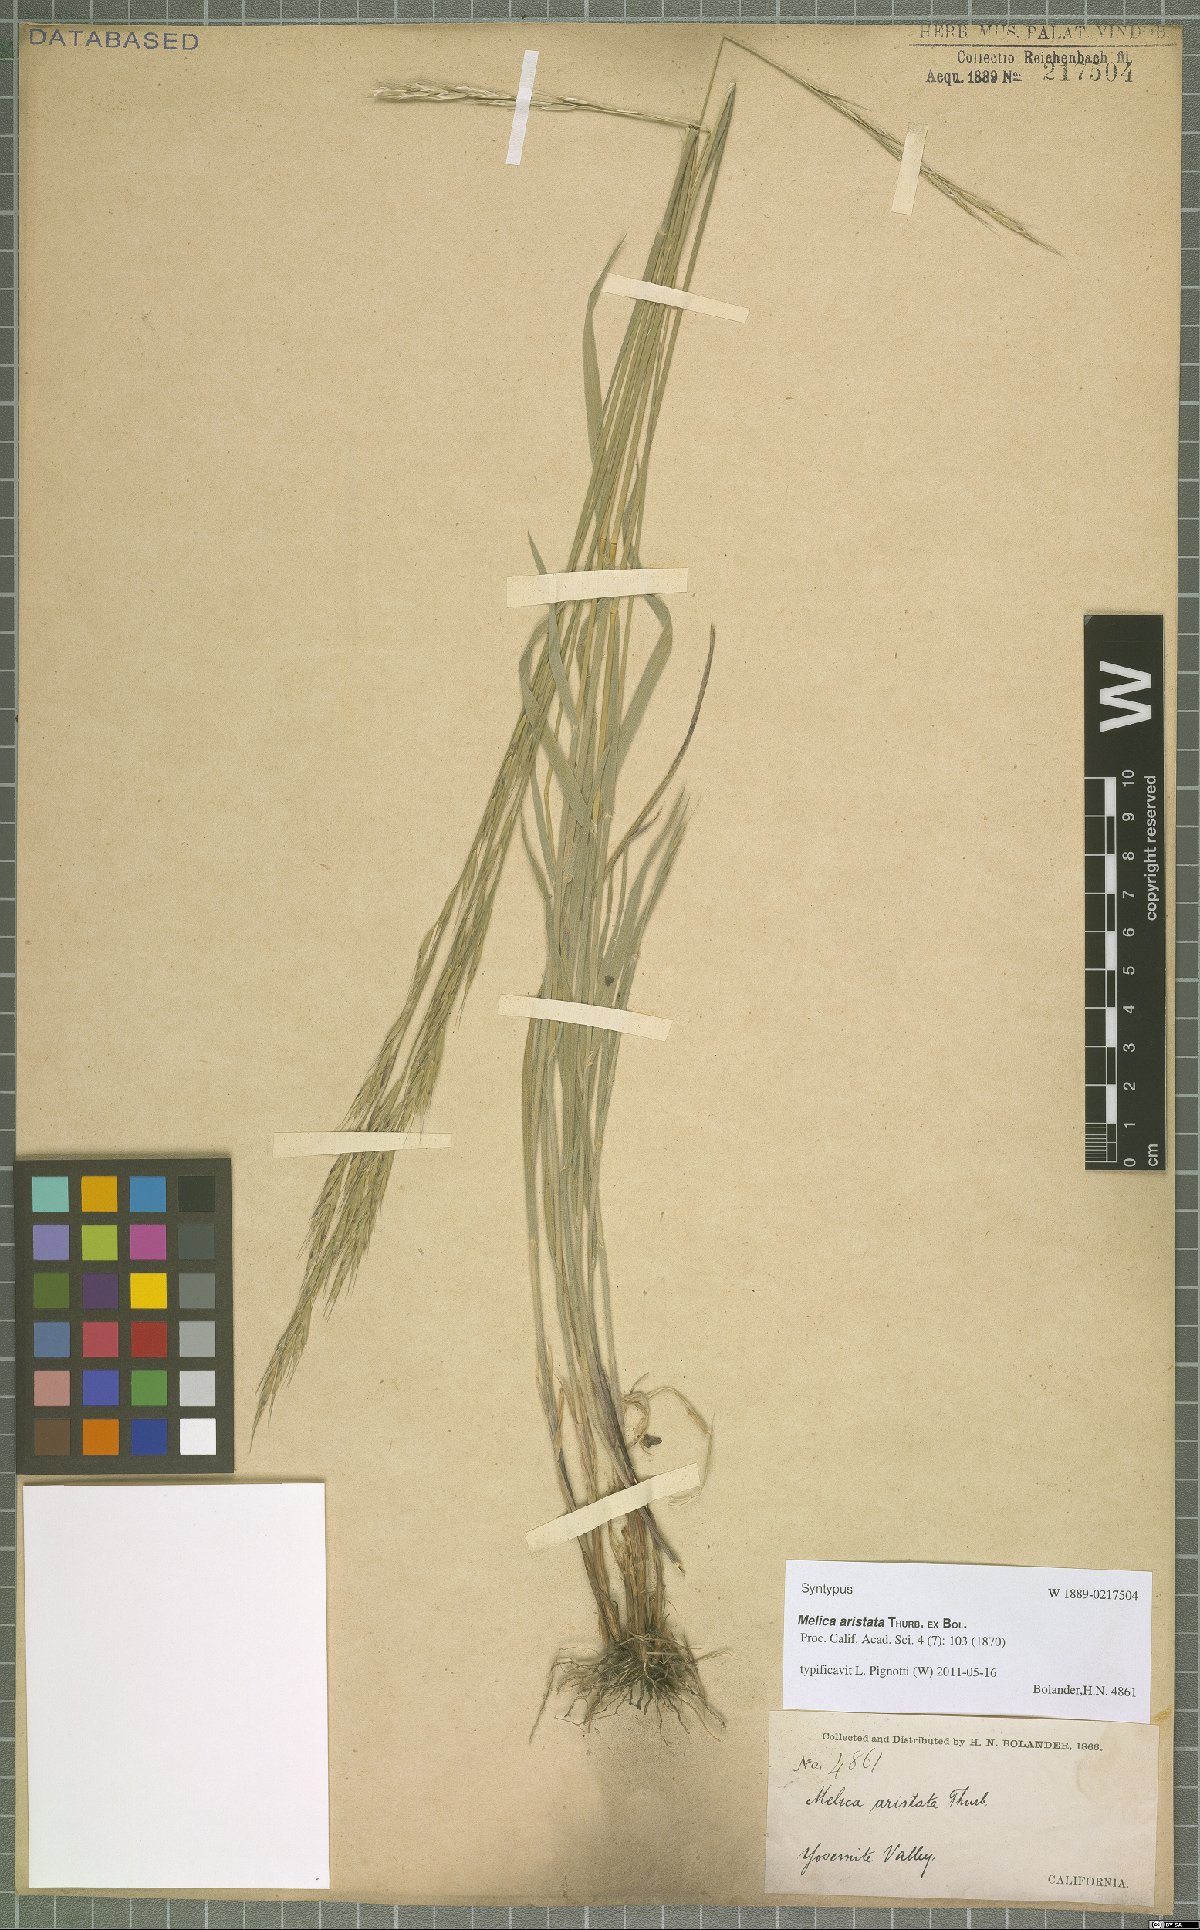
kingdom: Plantae
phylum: Tracheophyta
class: Liliopsida
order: Poales
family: Poaceae
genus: Melica
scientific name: Melica aristata
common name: Awned melic
